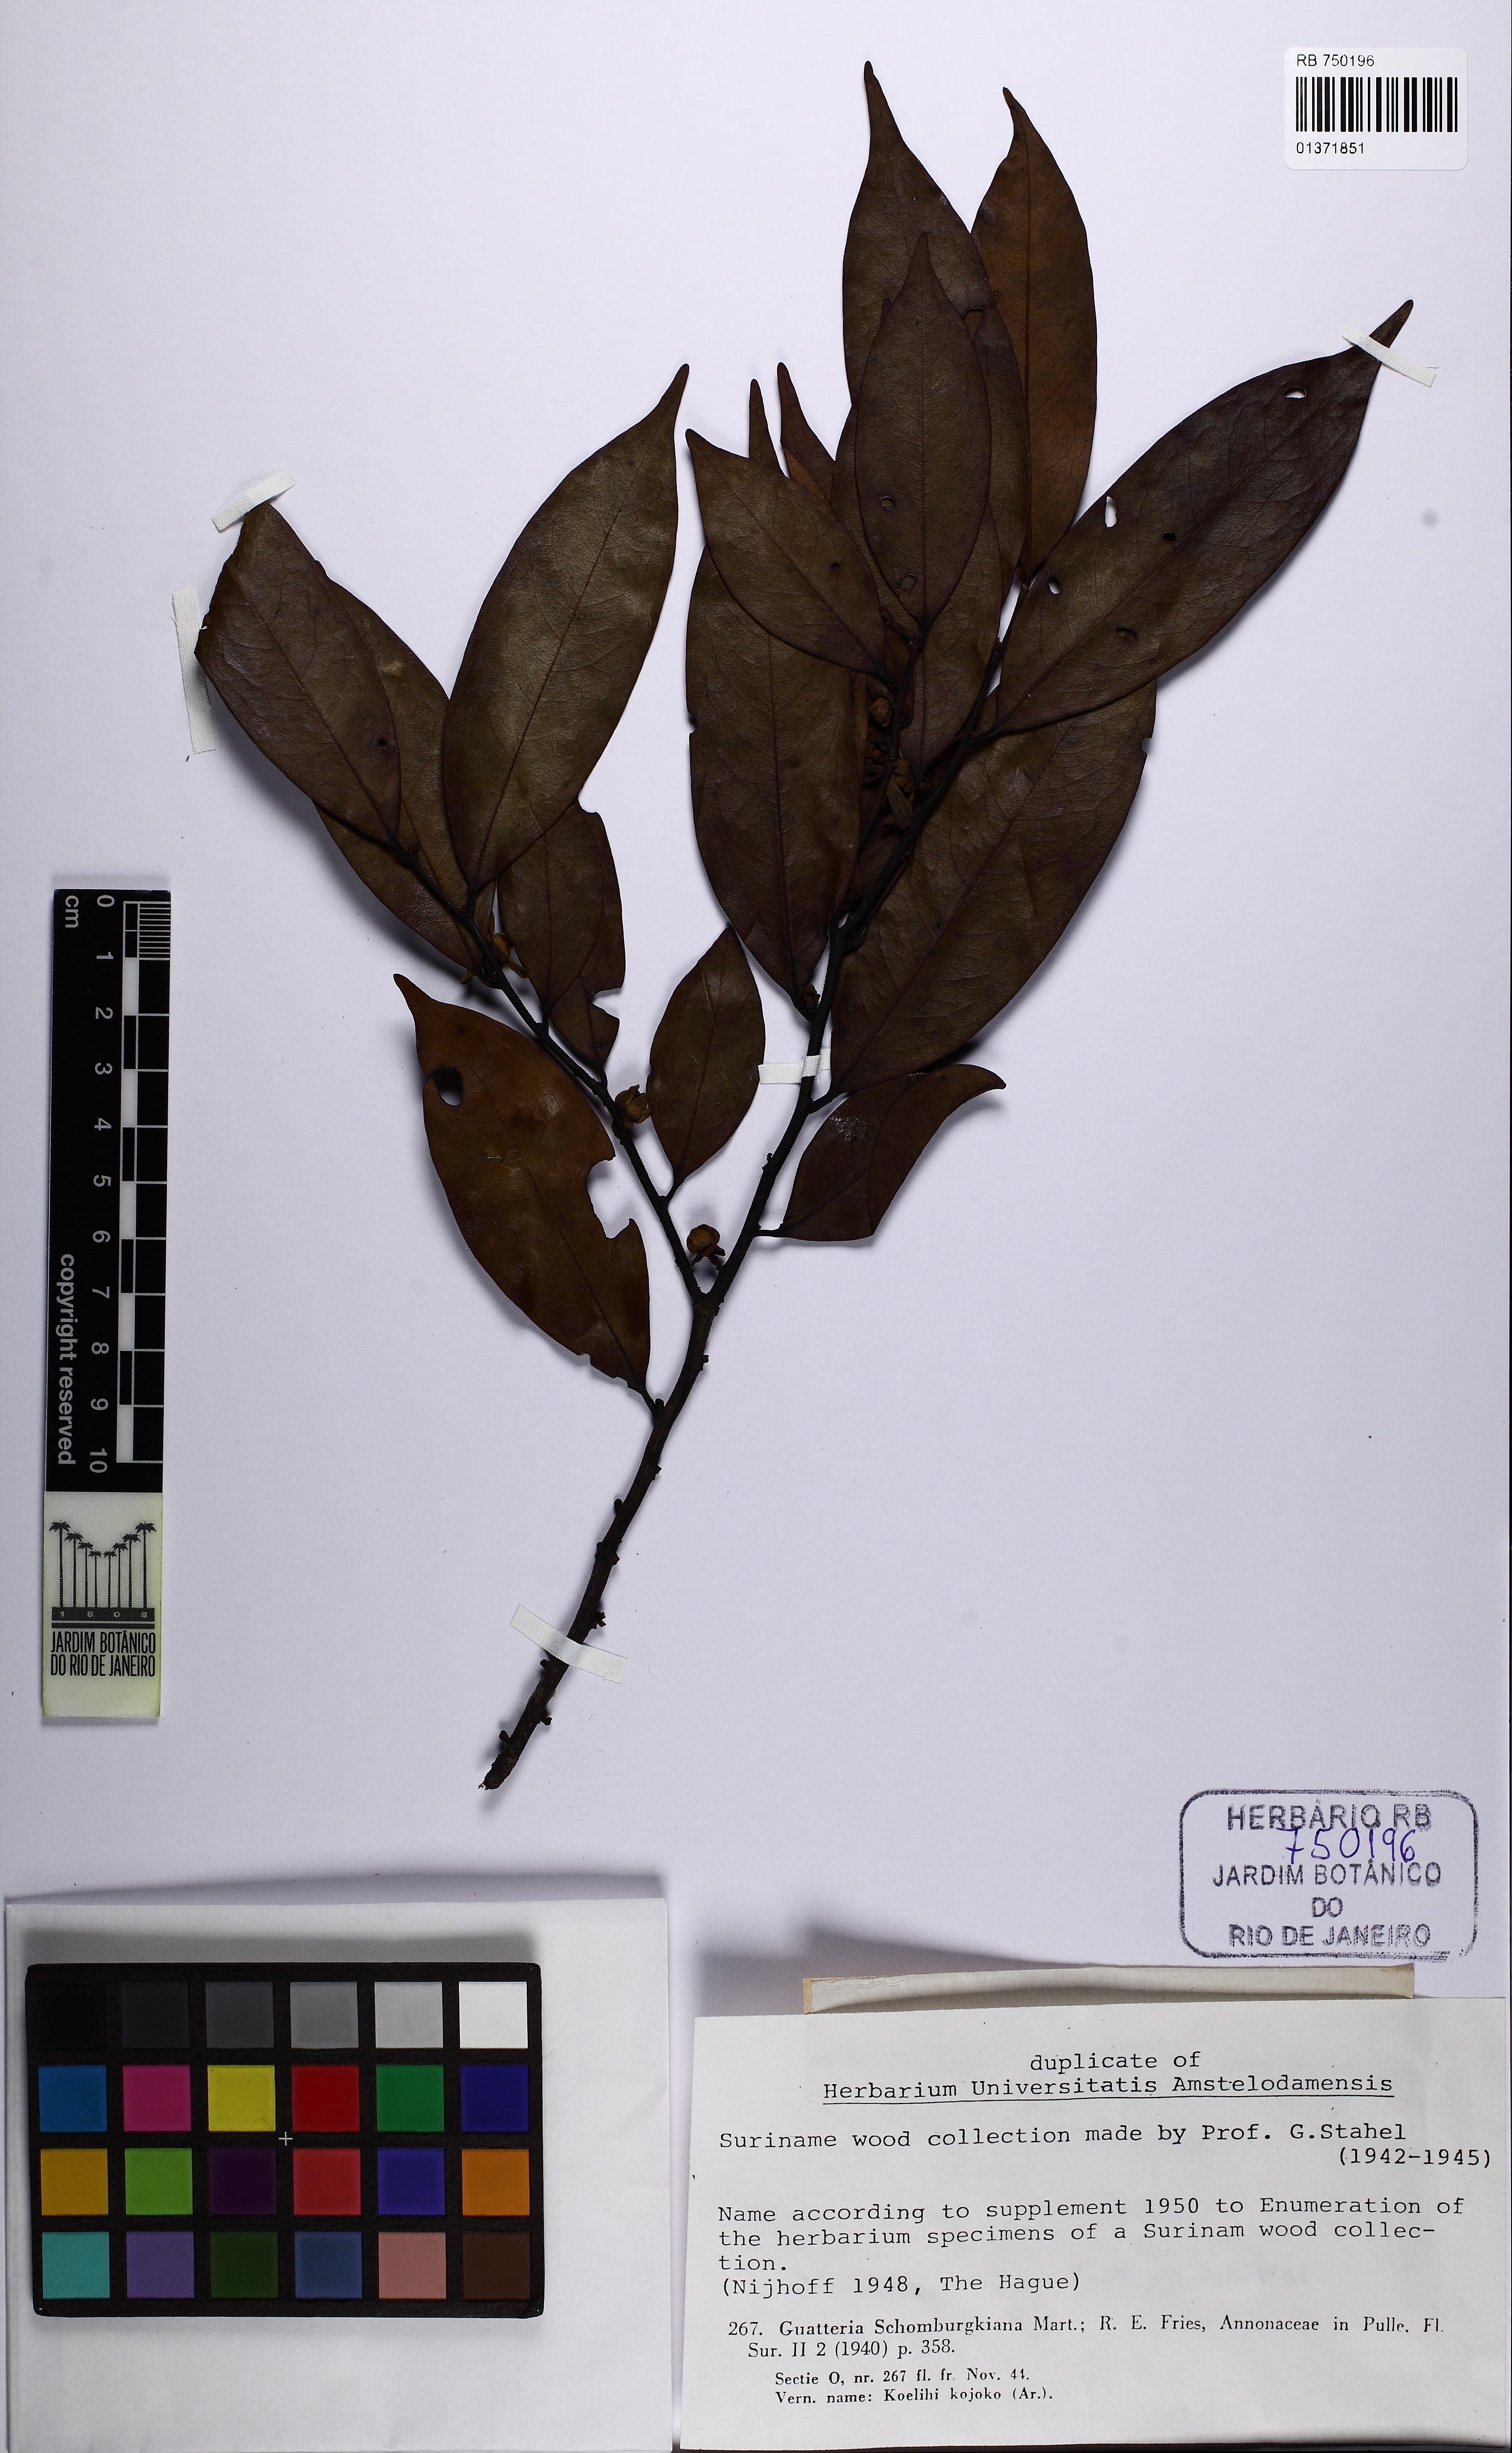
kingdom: Plantae
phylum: Tracheophyta
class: Magnoliopsida
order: Magnoliales
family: Annonaceae
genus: Guatteria
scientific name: Guatteria schomburgkiana
